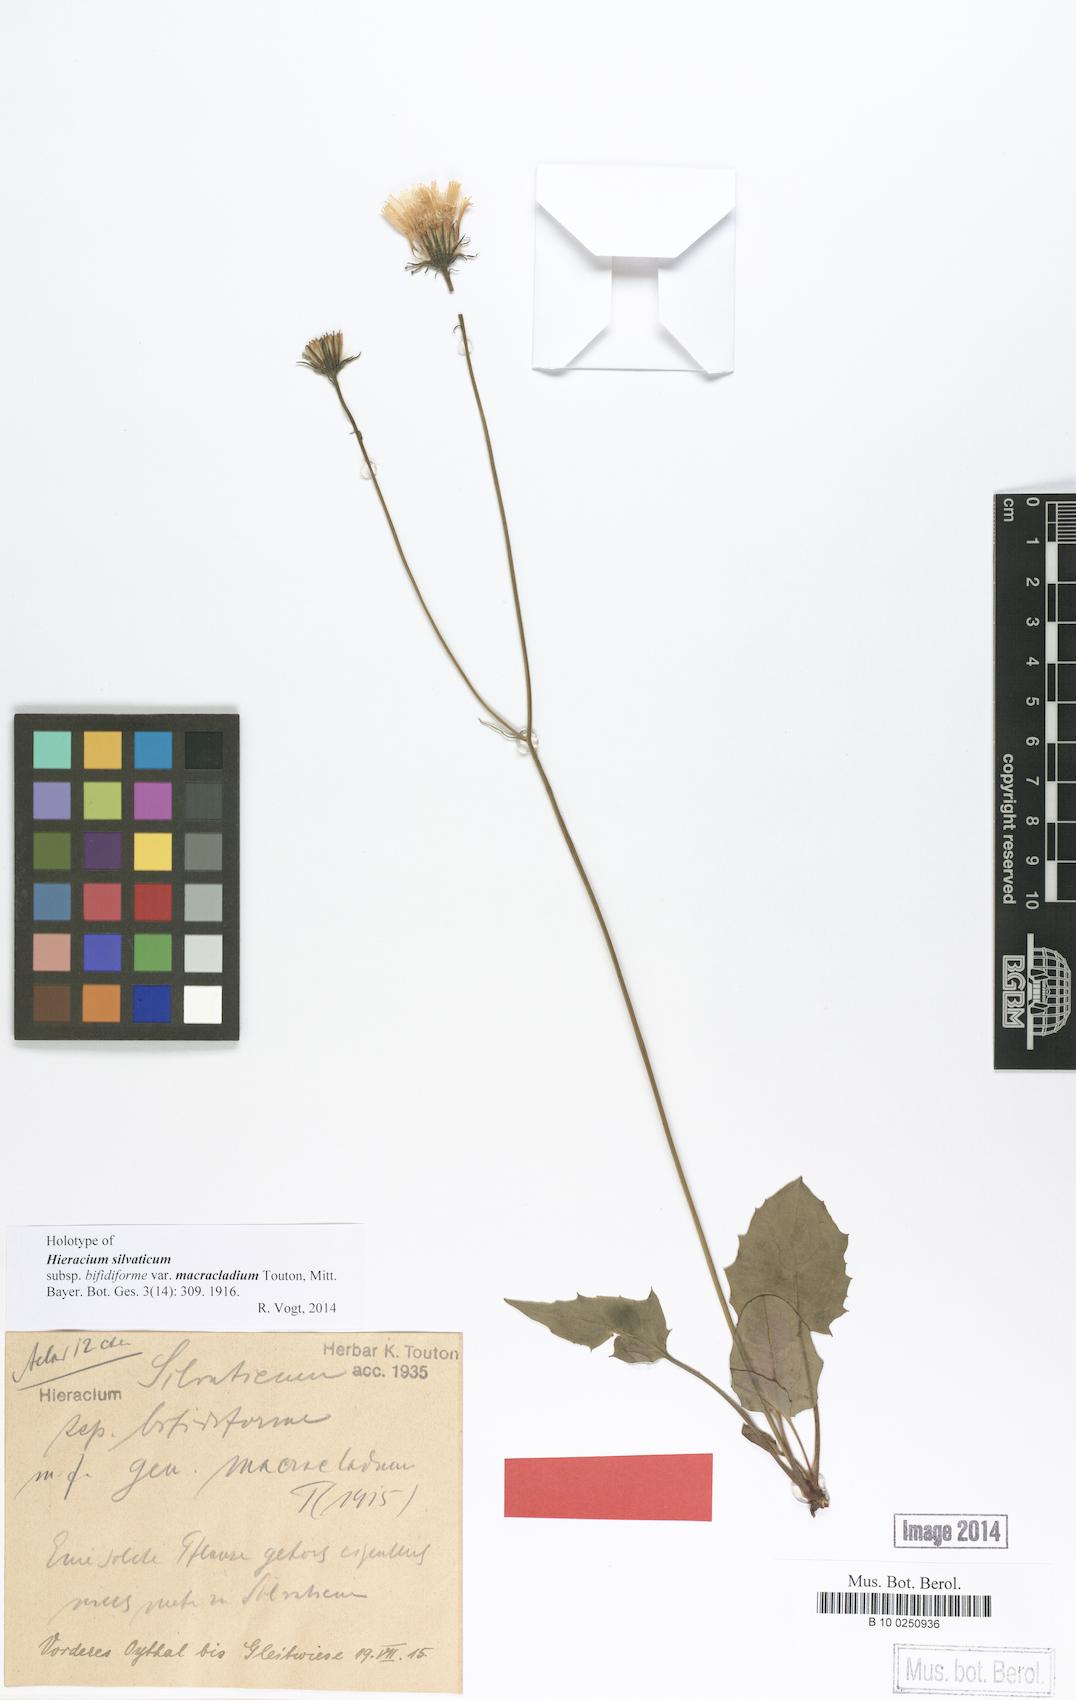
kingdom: Plantae
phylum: Tracheophyta
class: Magnoliopsida
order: Asterales
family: Asteraceae
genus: Hieracium
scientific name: Hieracium micracladium
